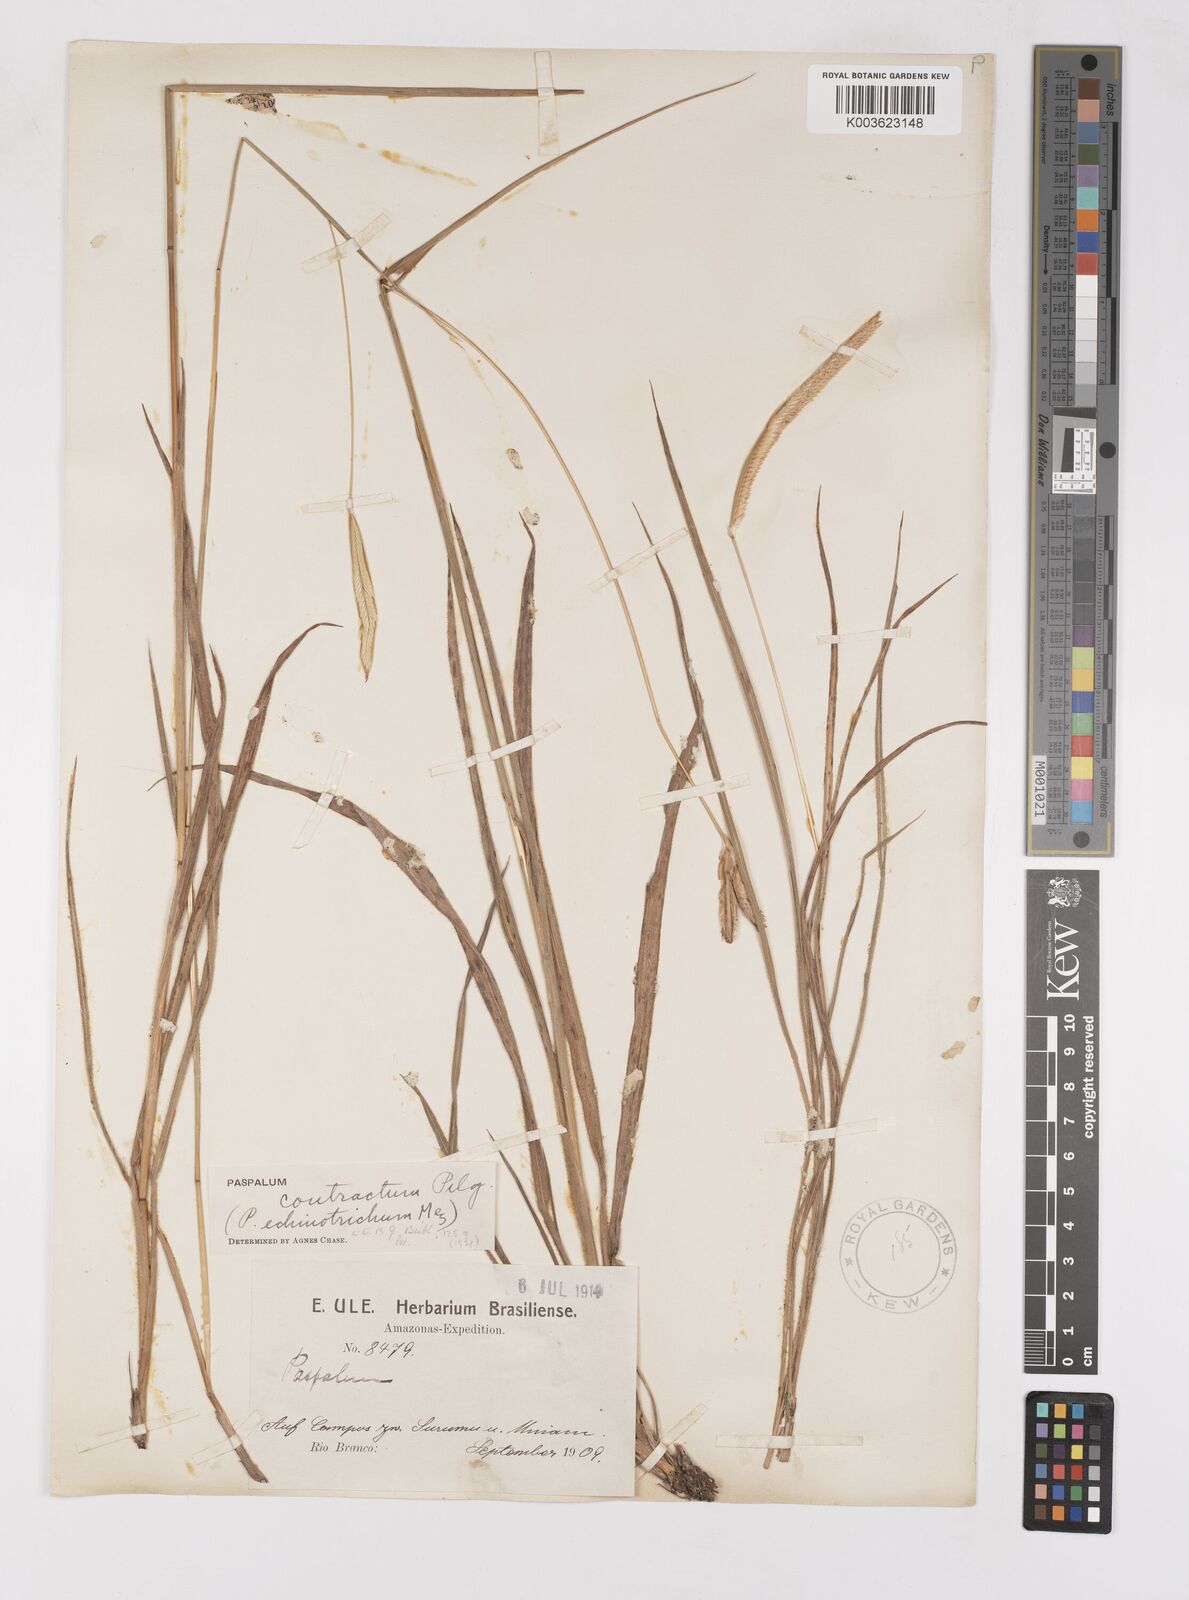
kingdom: Plantae
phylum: Tracheophyta
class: Liliopsida
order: Poales
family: Poaceae
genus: Paspalum
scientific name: Paspalum lanciflorum
